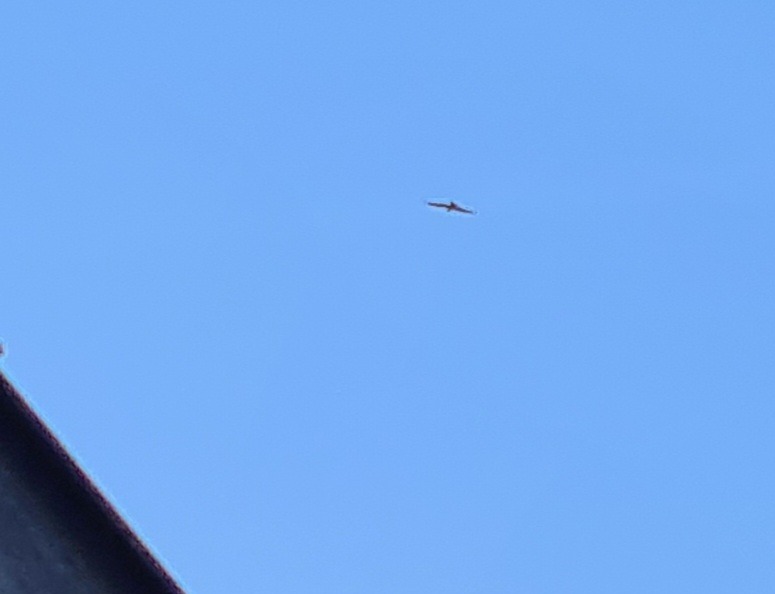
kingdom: Animalia
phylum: Chordata
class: Aves
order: Accipitriformes
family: Accipitridae
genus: Milvus
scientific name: Milvus milvus
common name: Rød glente
